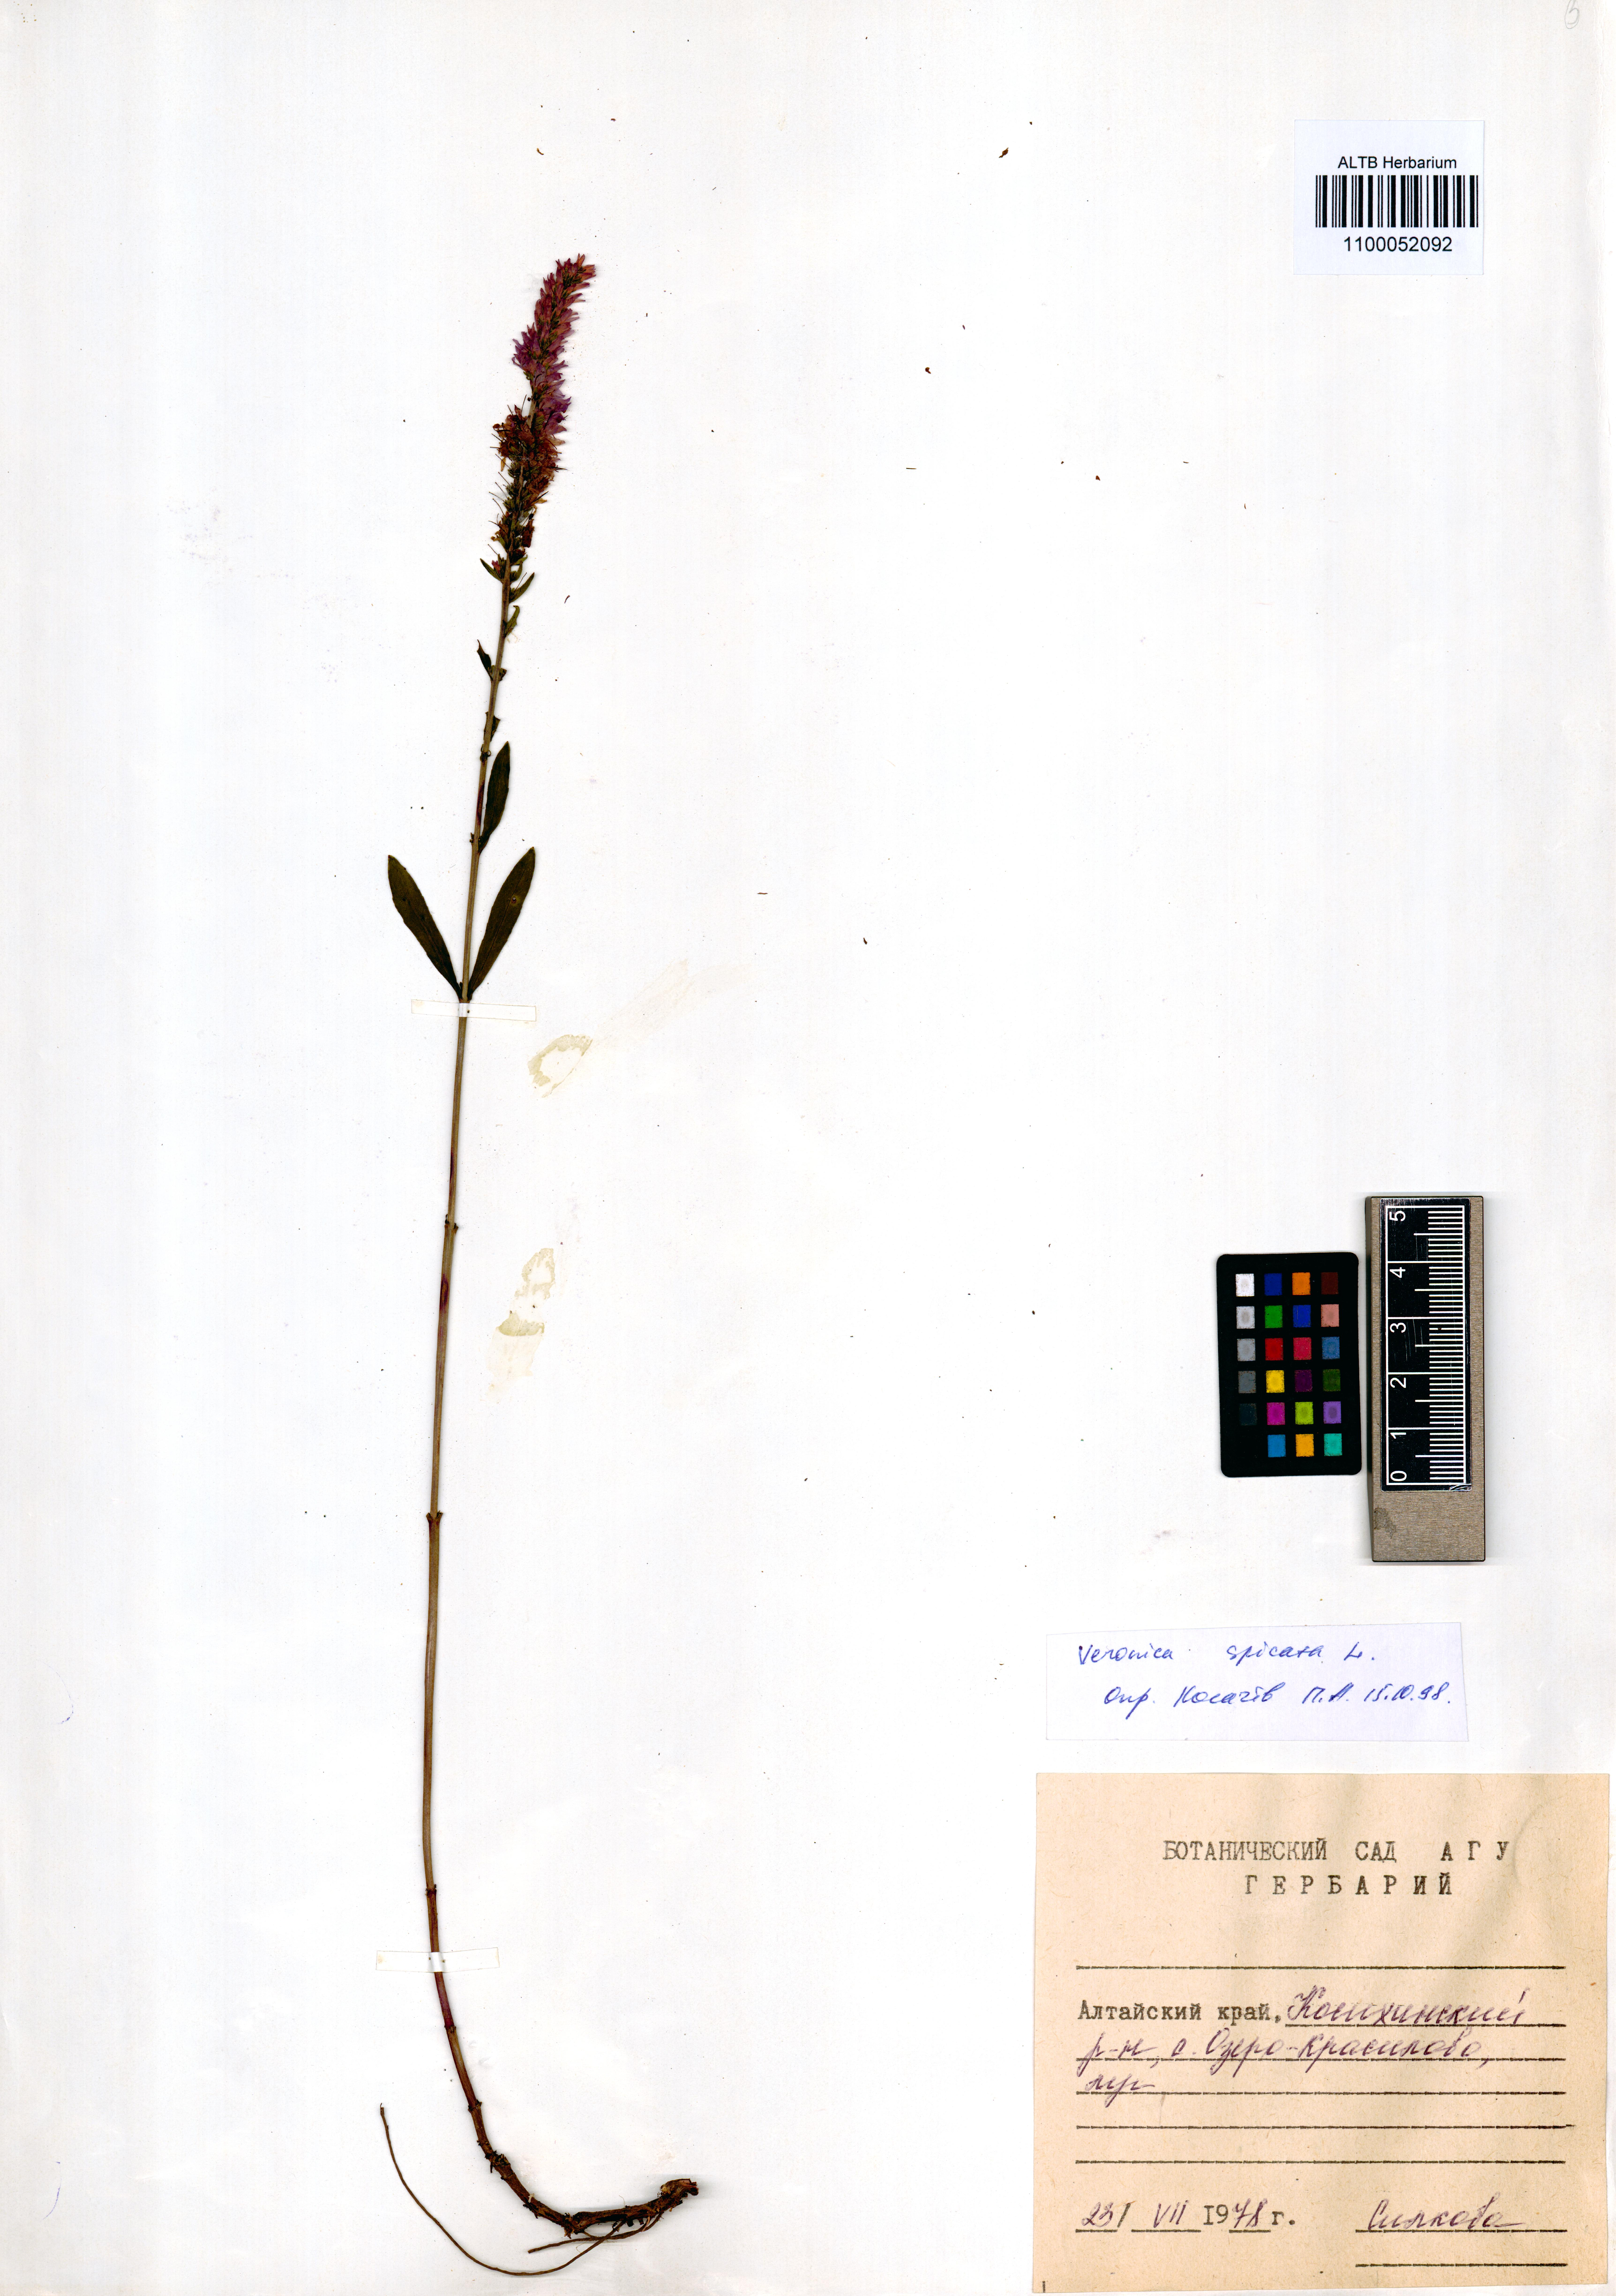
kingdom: Plantae
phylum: Tracheophyta
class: Magnoliopsida
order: Lamiales
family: Plantaginaceae
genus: Veronica
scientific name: Veronica spicata
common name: Spiked speedwell
